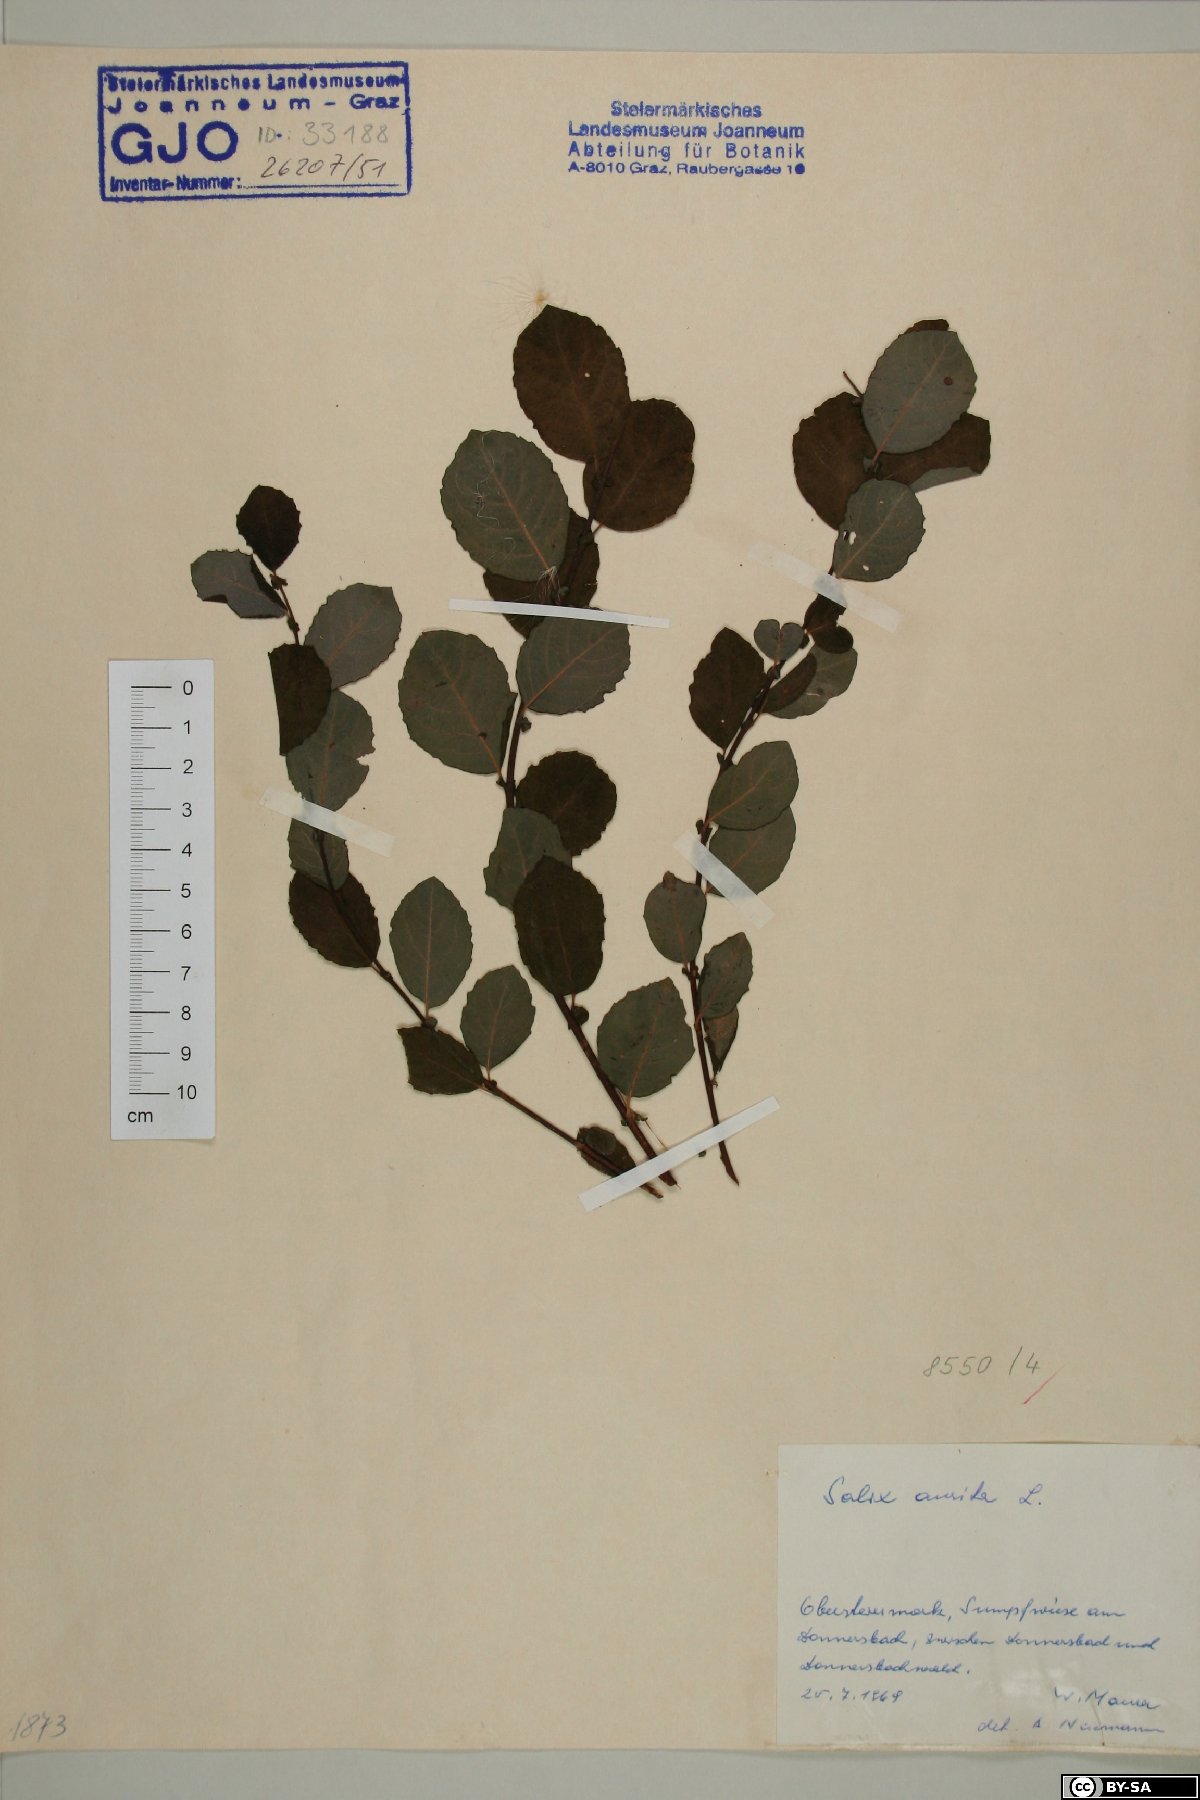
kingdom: Plantae
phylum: Tracheophyta
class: Magnoliopsida
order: Malpighiales
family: Salicaceae
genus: Salix
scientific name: Salix aurita
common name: Eared willow
